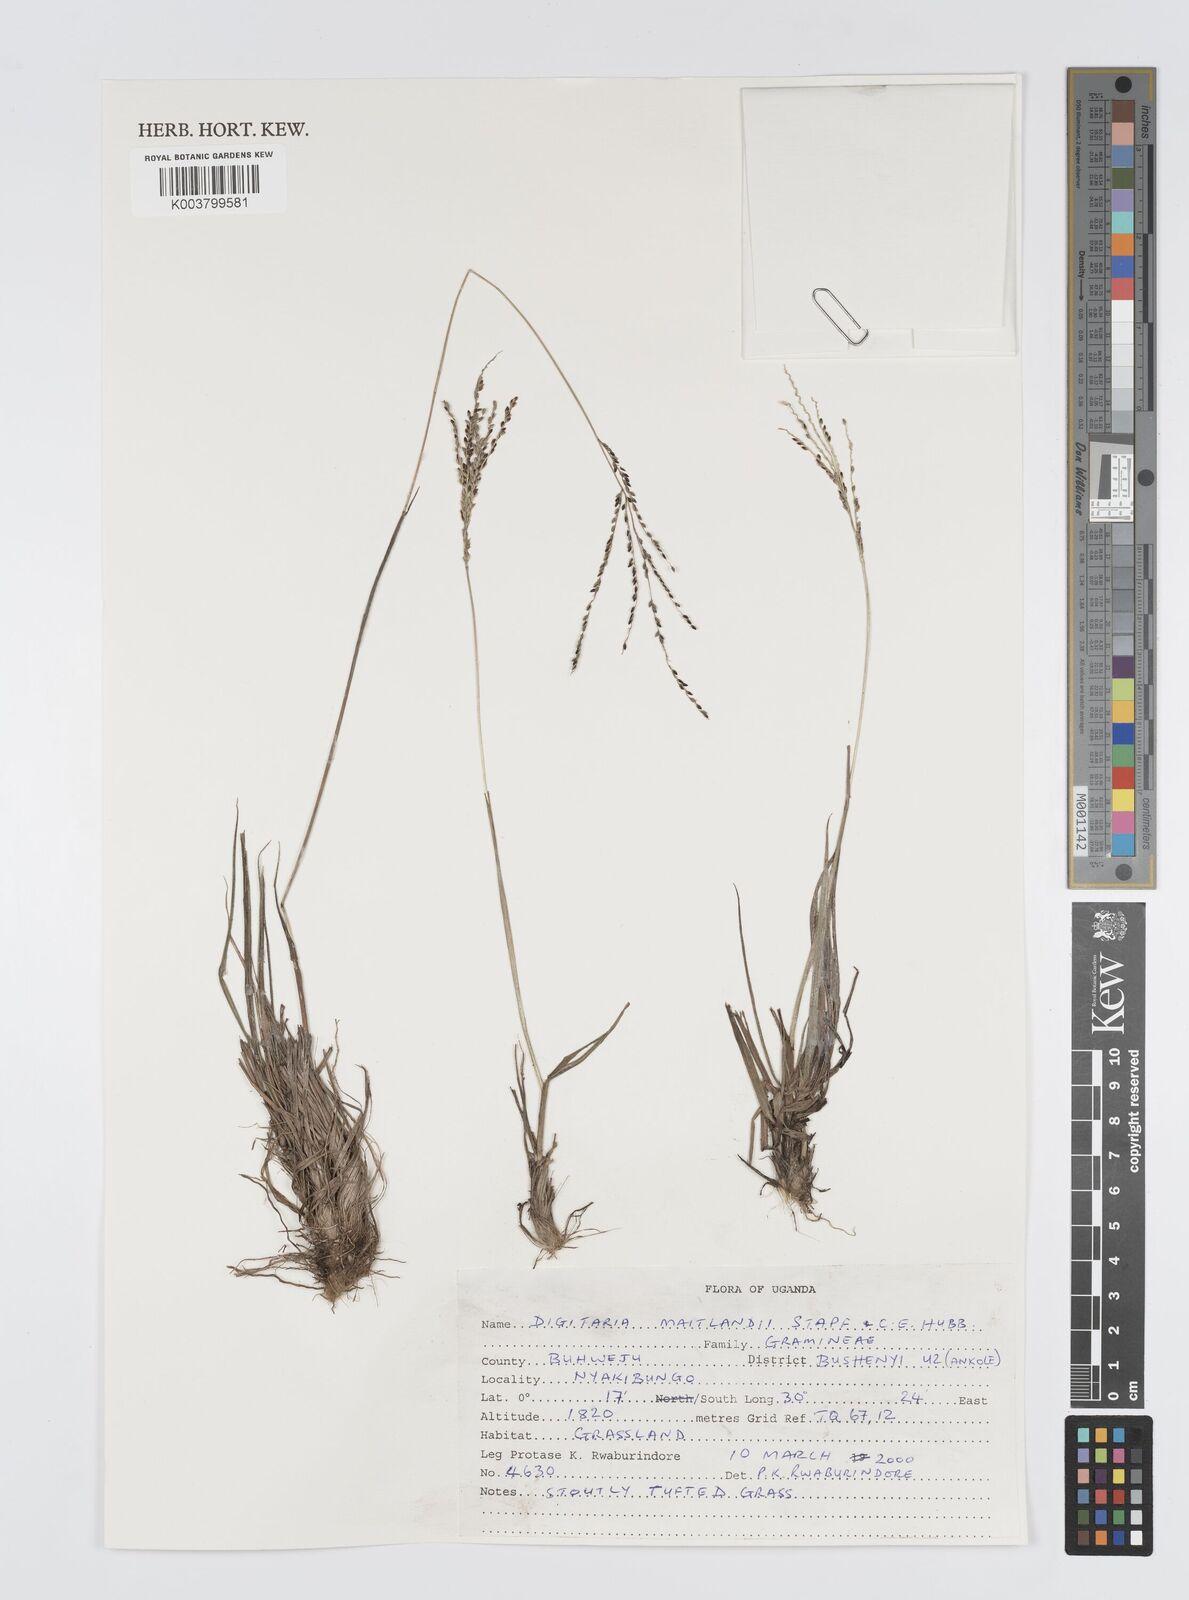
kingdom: Plantae
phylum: Tracheophyta
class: Liliopsida
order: Poales
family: Poaceae
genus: Digitaria
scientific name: Digitaria maitlandii
